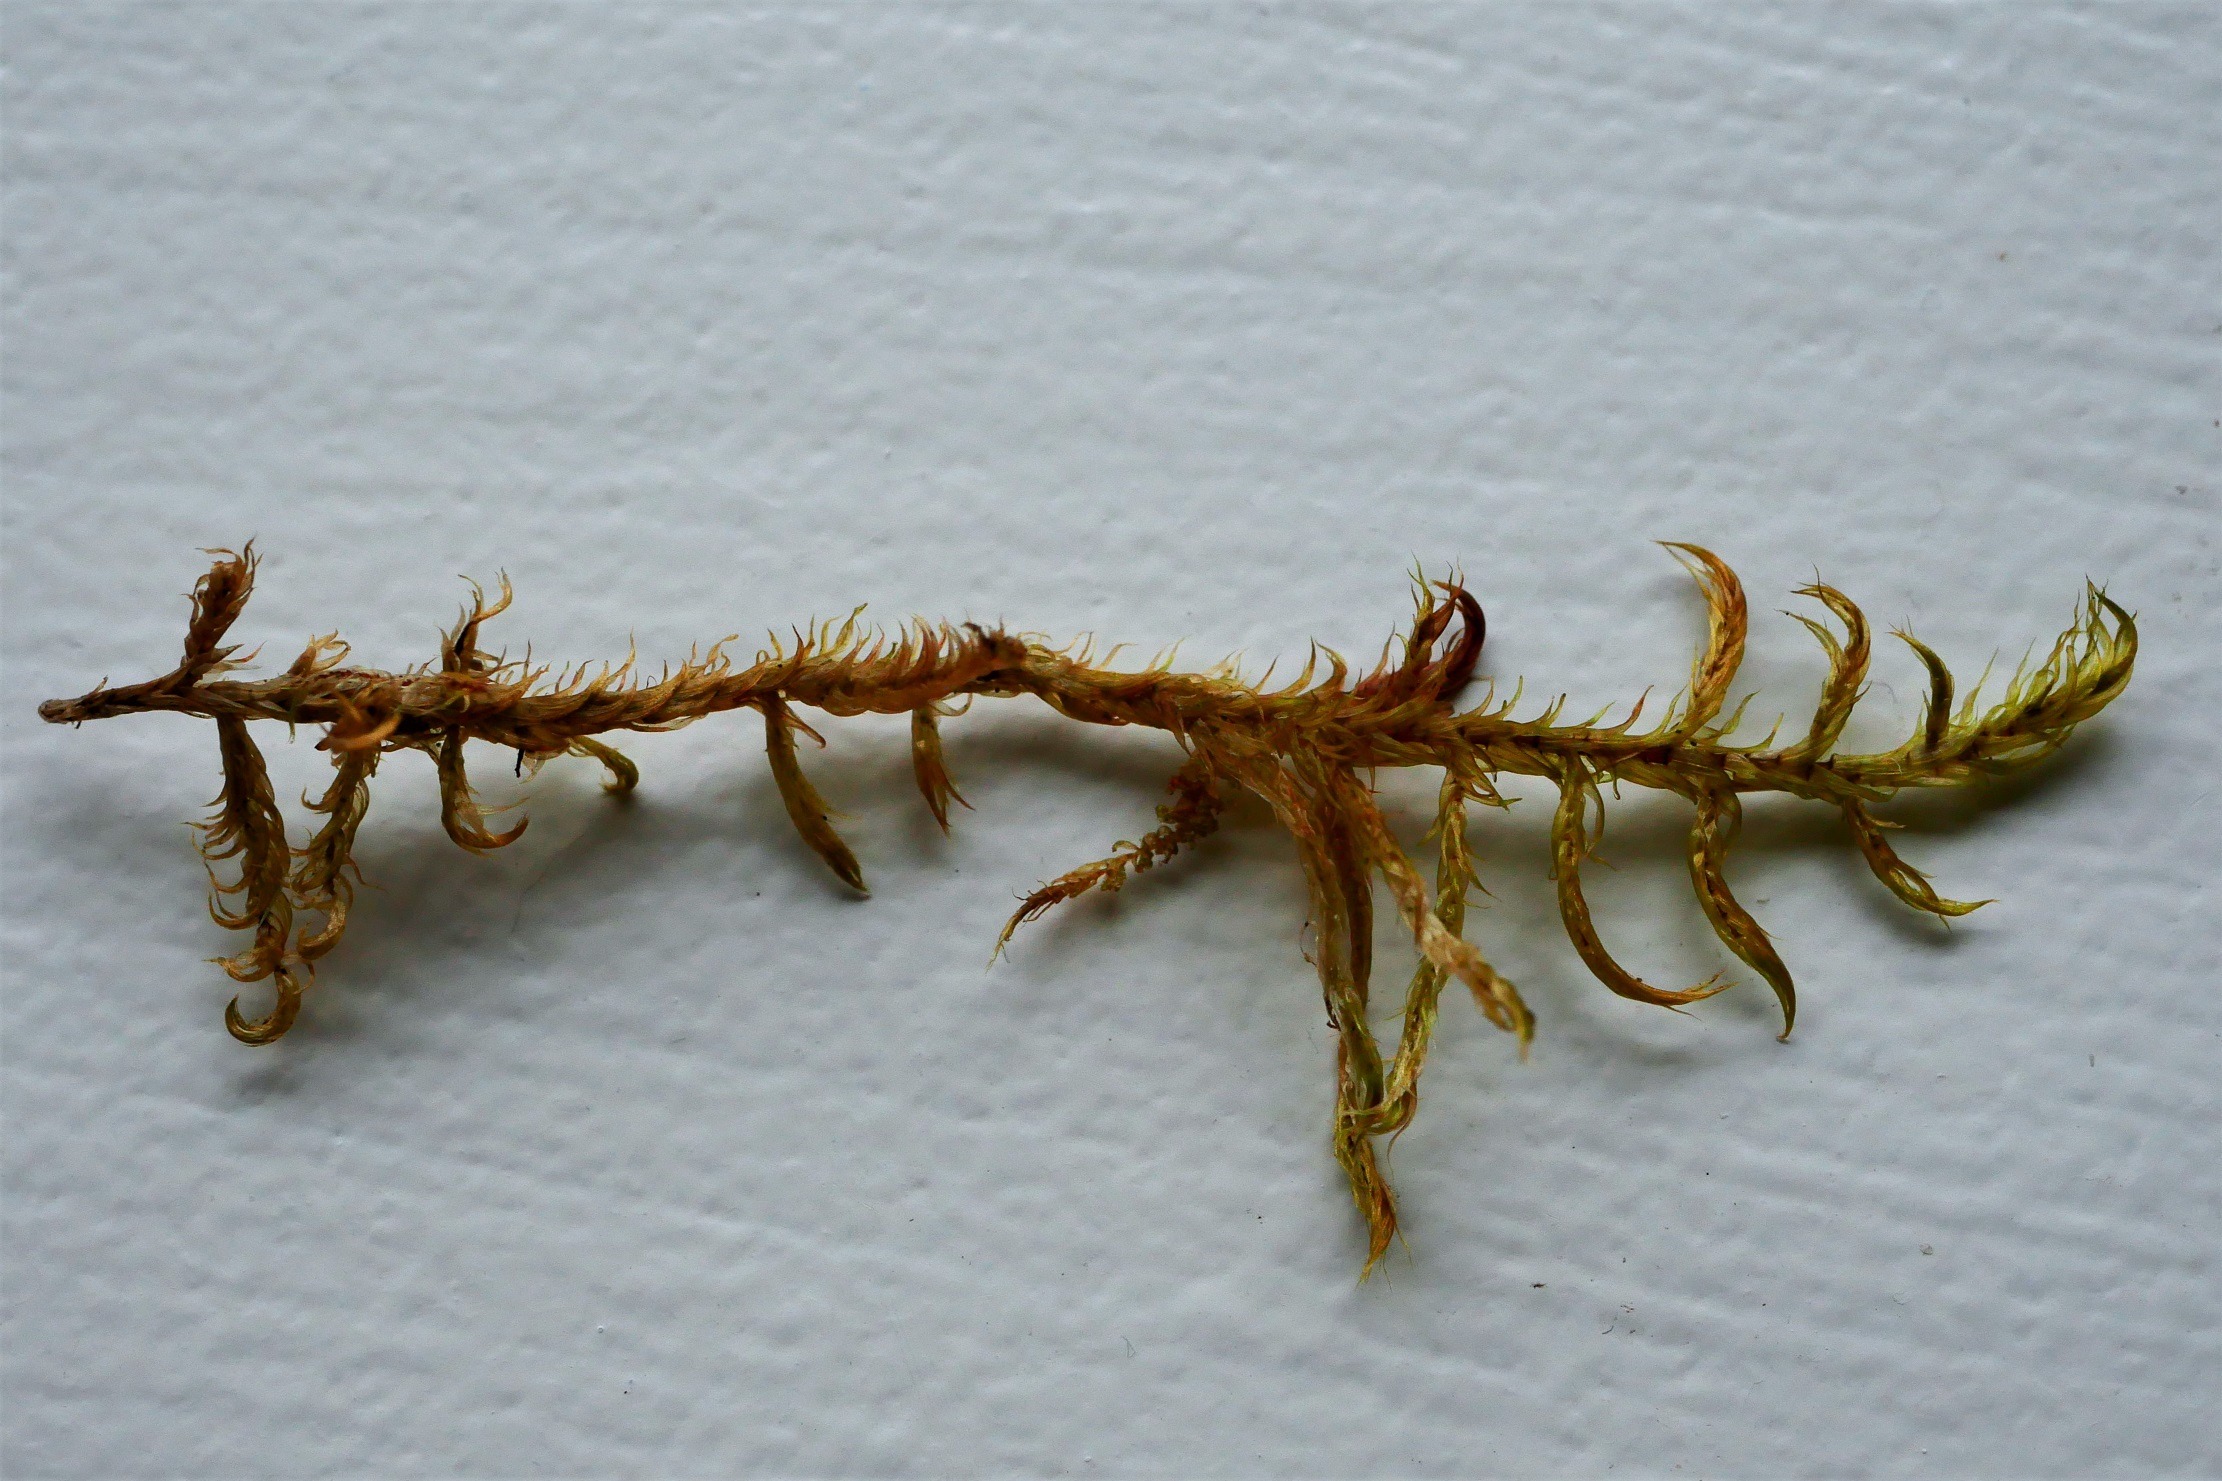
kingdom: Plantae
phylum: Bryophyta
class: Bryopsida
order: Hypnales
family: Calliergonaceae
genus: Sarmentypnum
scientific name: Sarmentypnum exannulatum
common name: Rødlig bueblad
